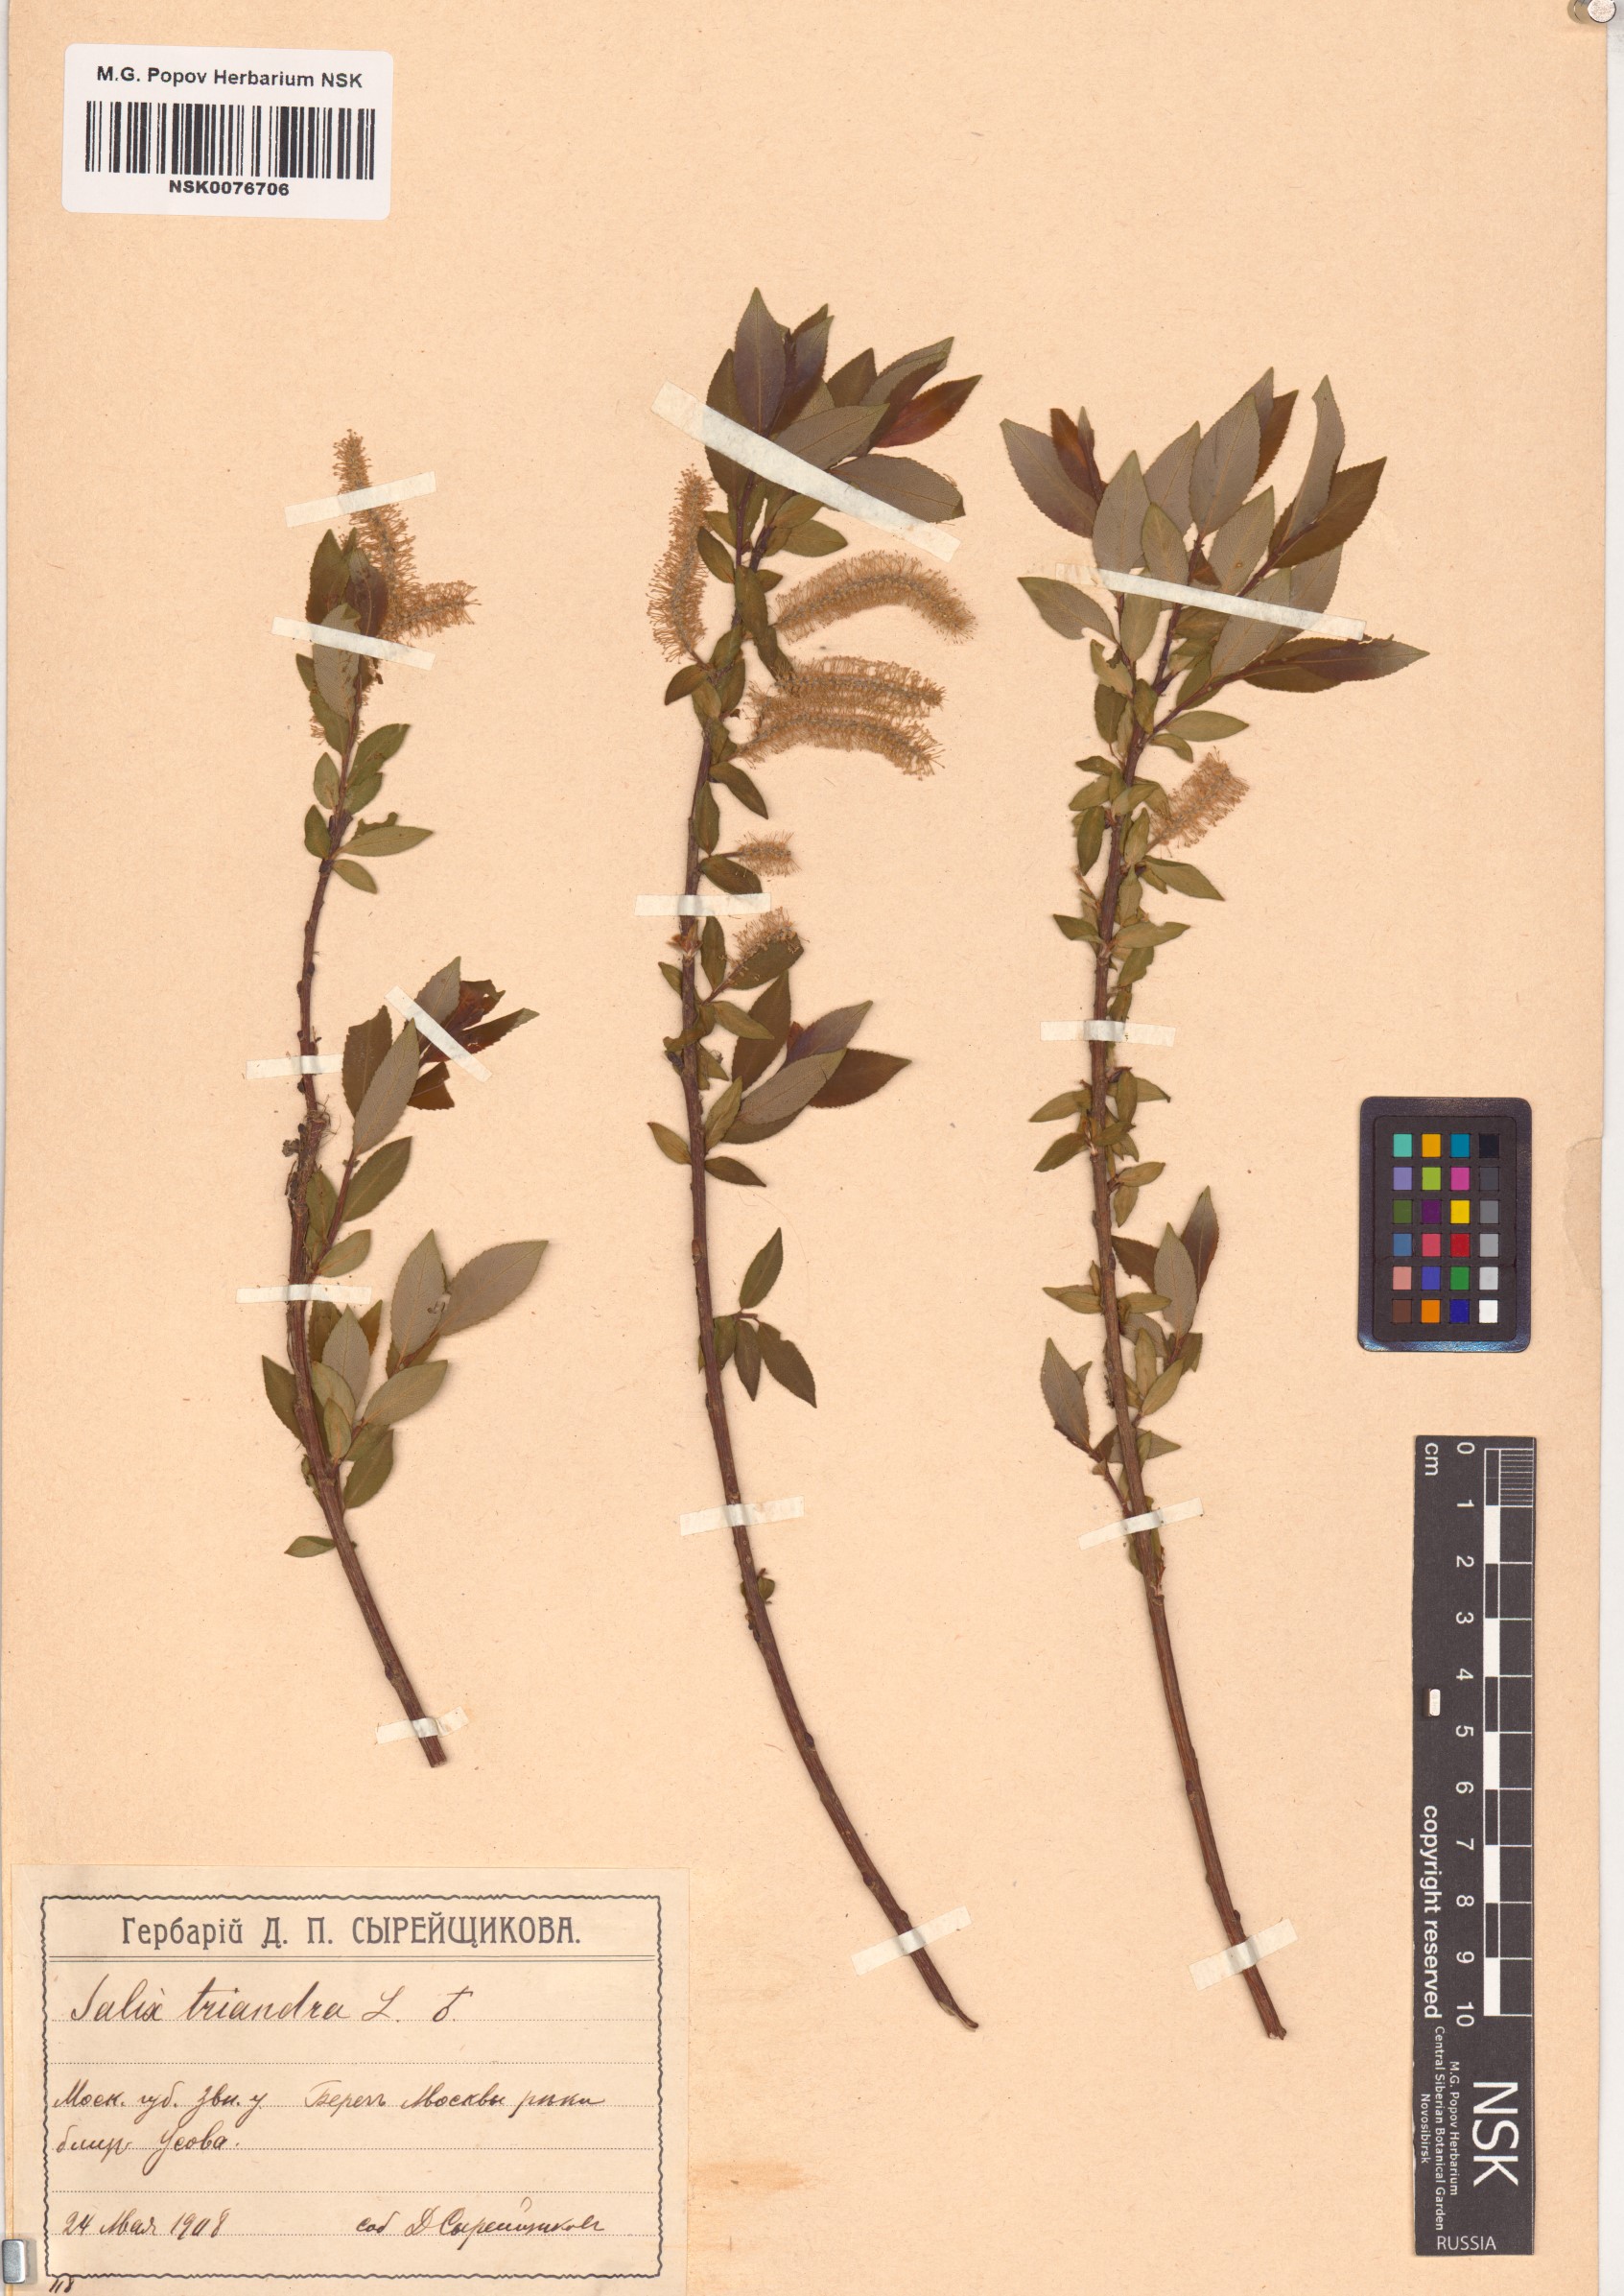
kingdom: Plantae
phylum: Tracheophyta
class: Magnoliopsida
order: Malpighiales
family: Salicaceae
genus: Salix
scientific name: Salix triandra
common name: Almond willow
